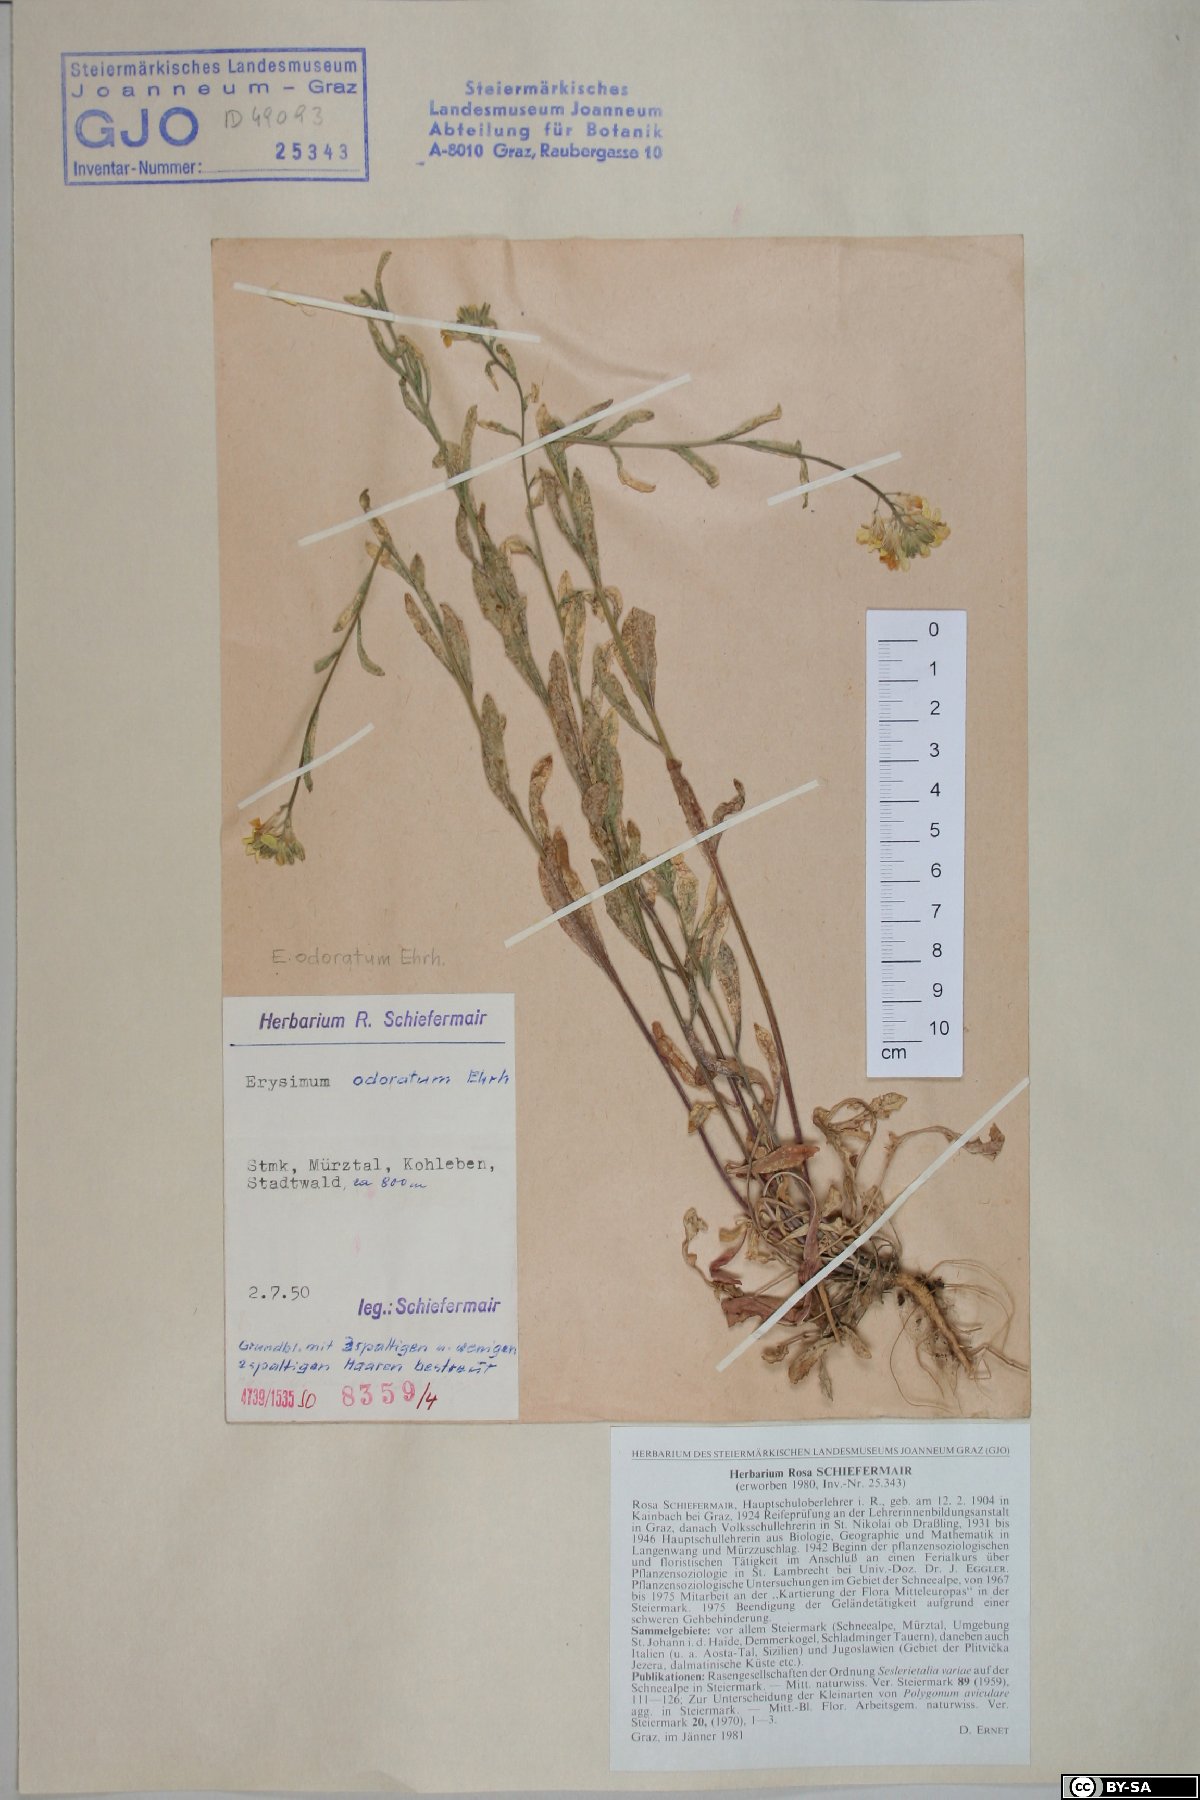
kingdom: Plantae
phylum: Tracheophyta
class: Magnoliopsida
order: Brassicales
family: Brassicaceae
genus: Erysimum
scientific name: Erysimum odoratum
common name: Smelly wallflower
